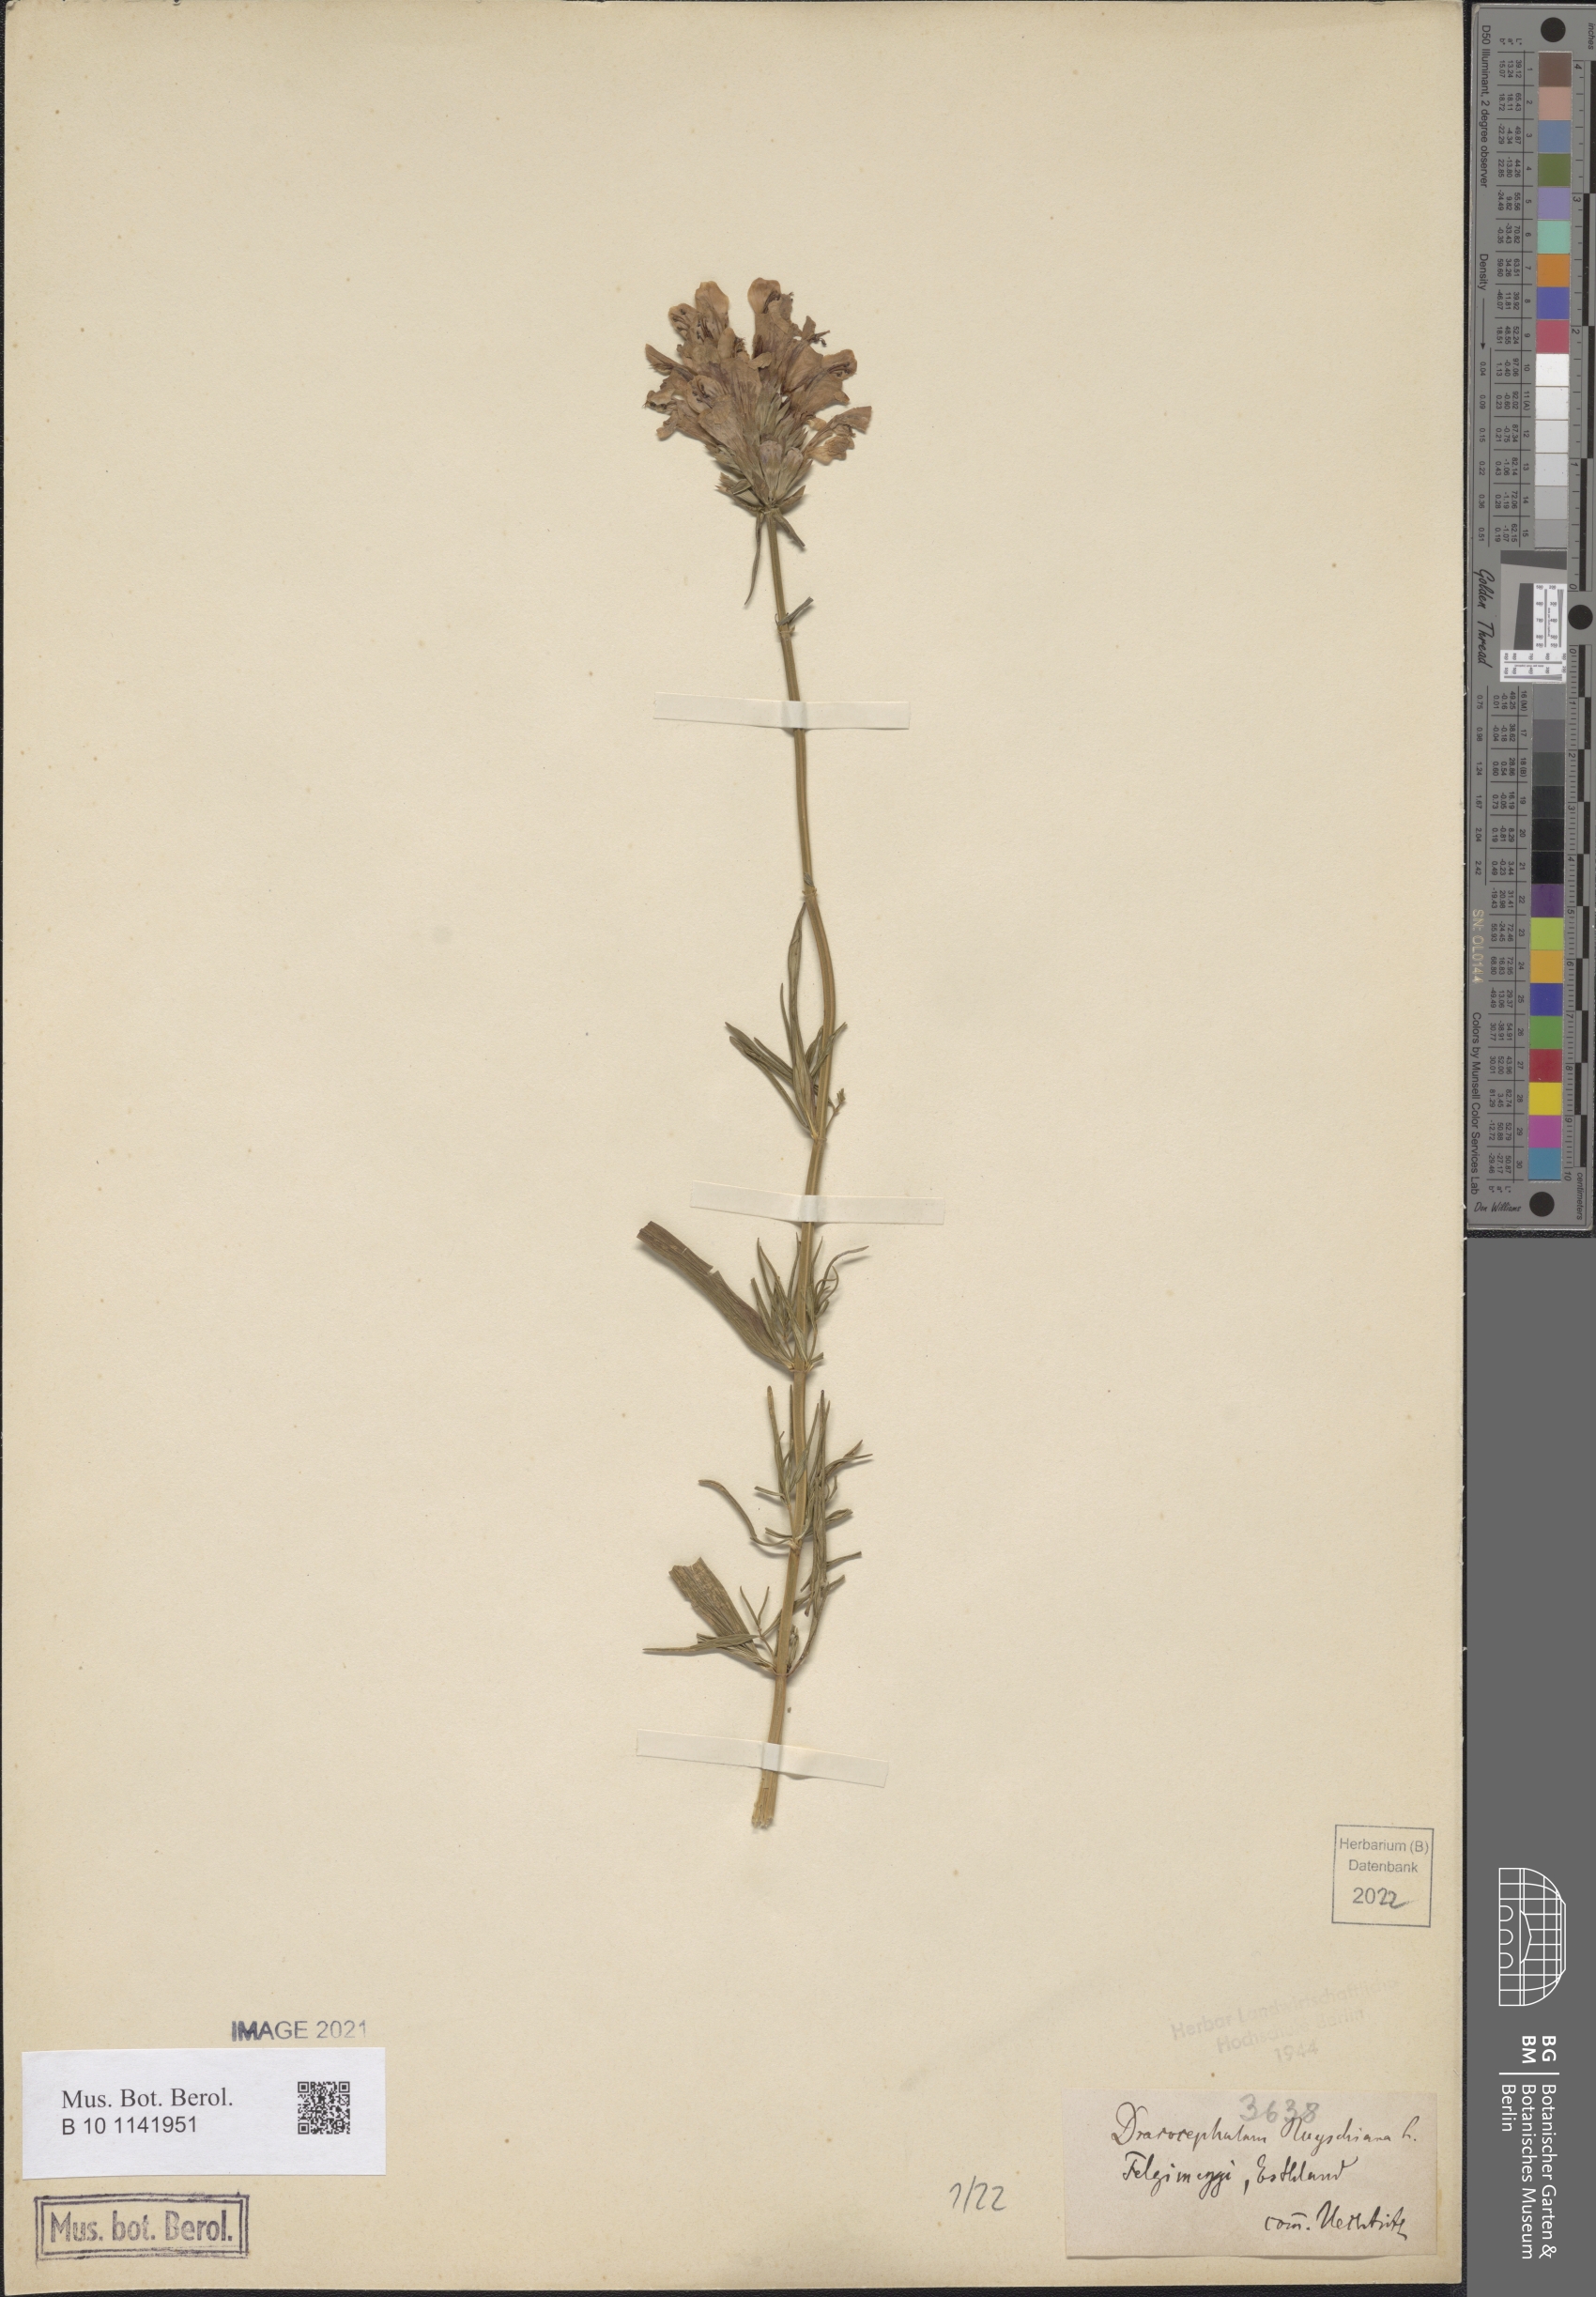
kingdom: Plantae
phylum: Tracheophyta
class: Magnoliopsida
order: Lamiales
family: Lamiaceae
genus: Dracocephalum
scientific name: Dracocephalum ruyschiana
